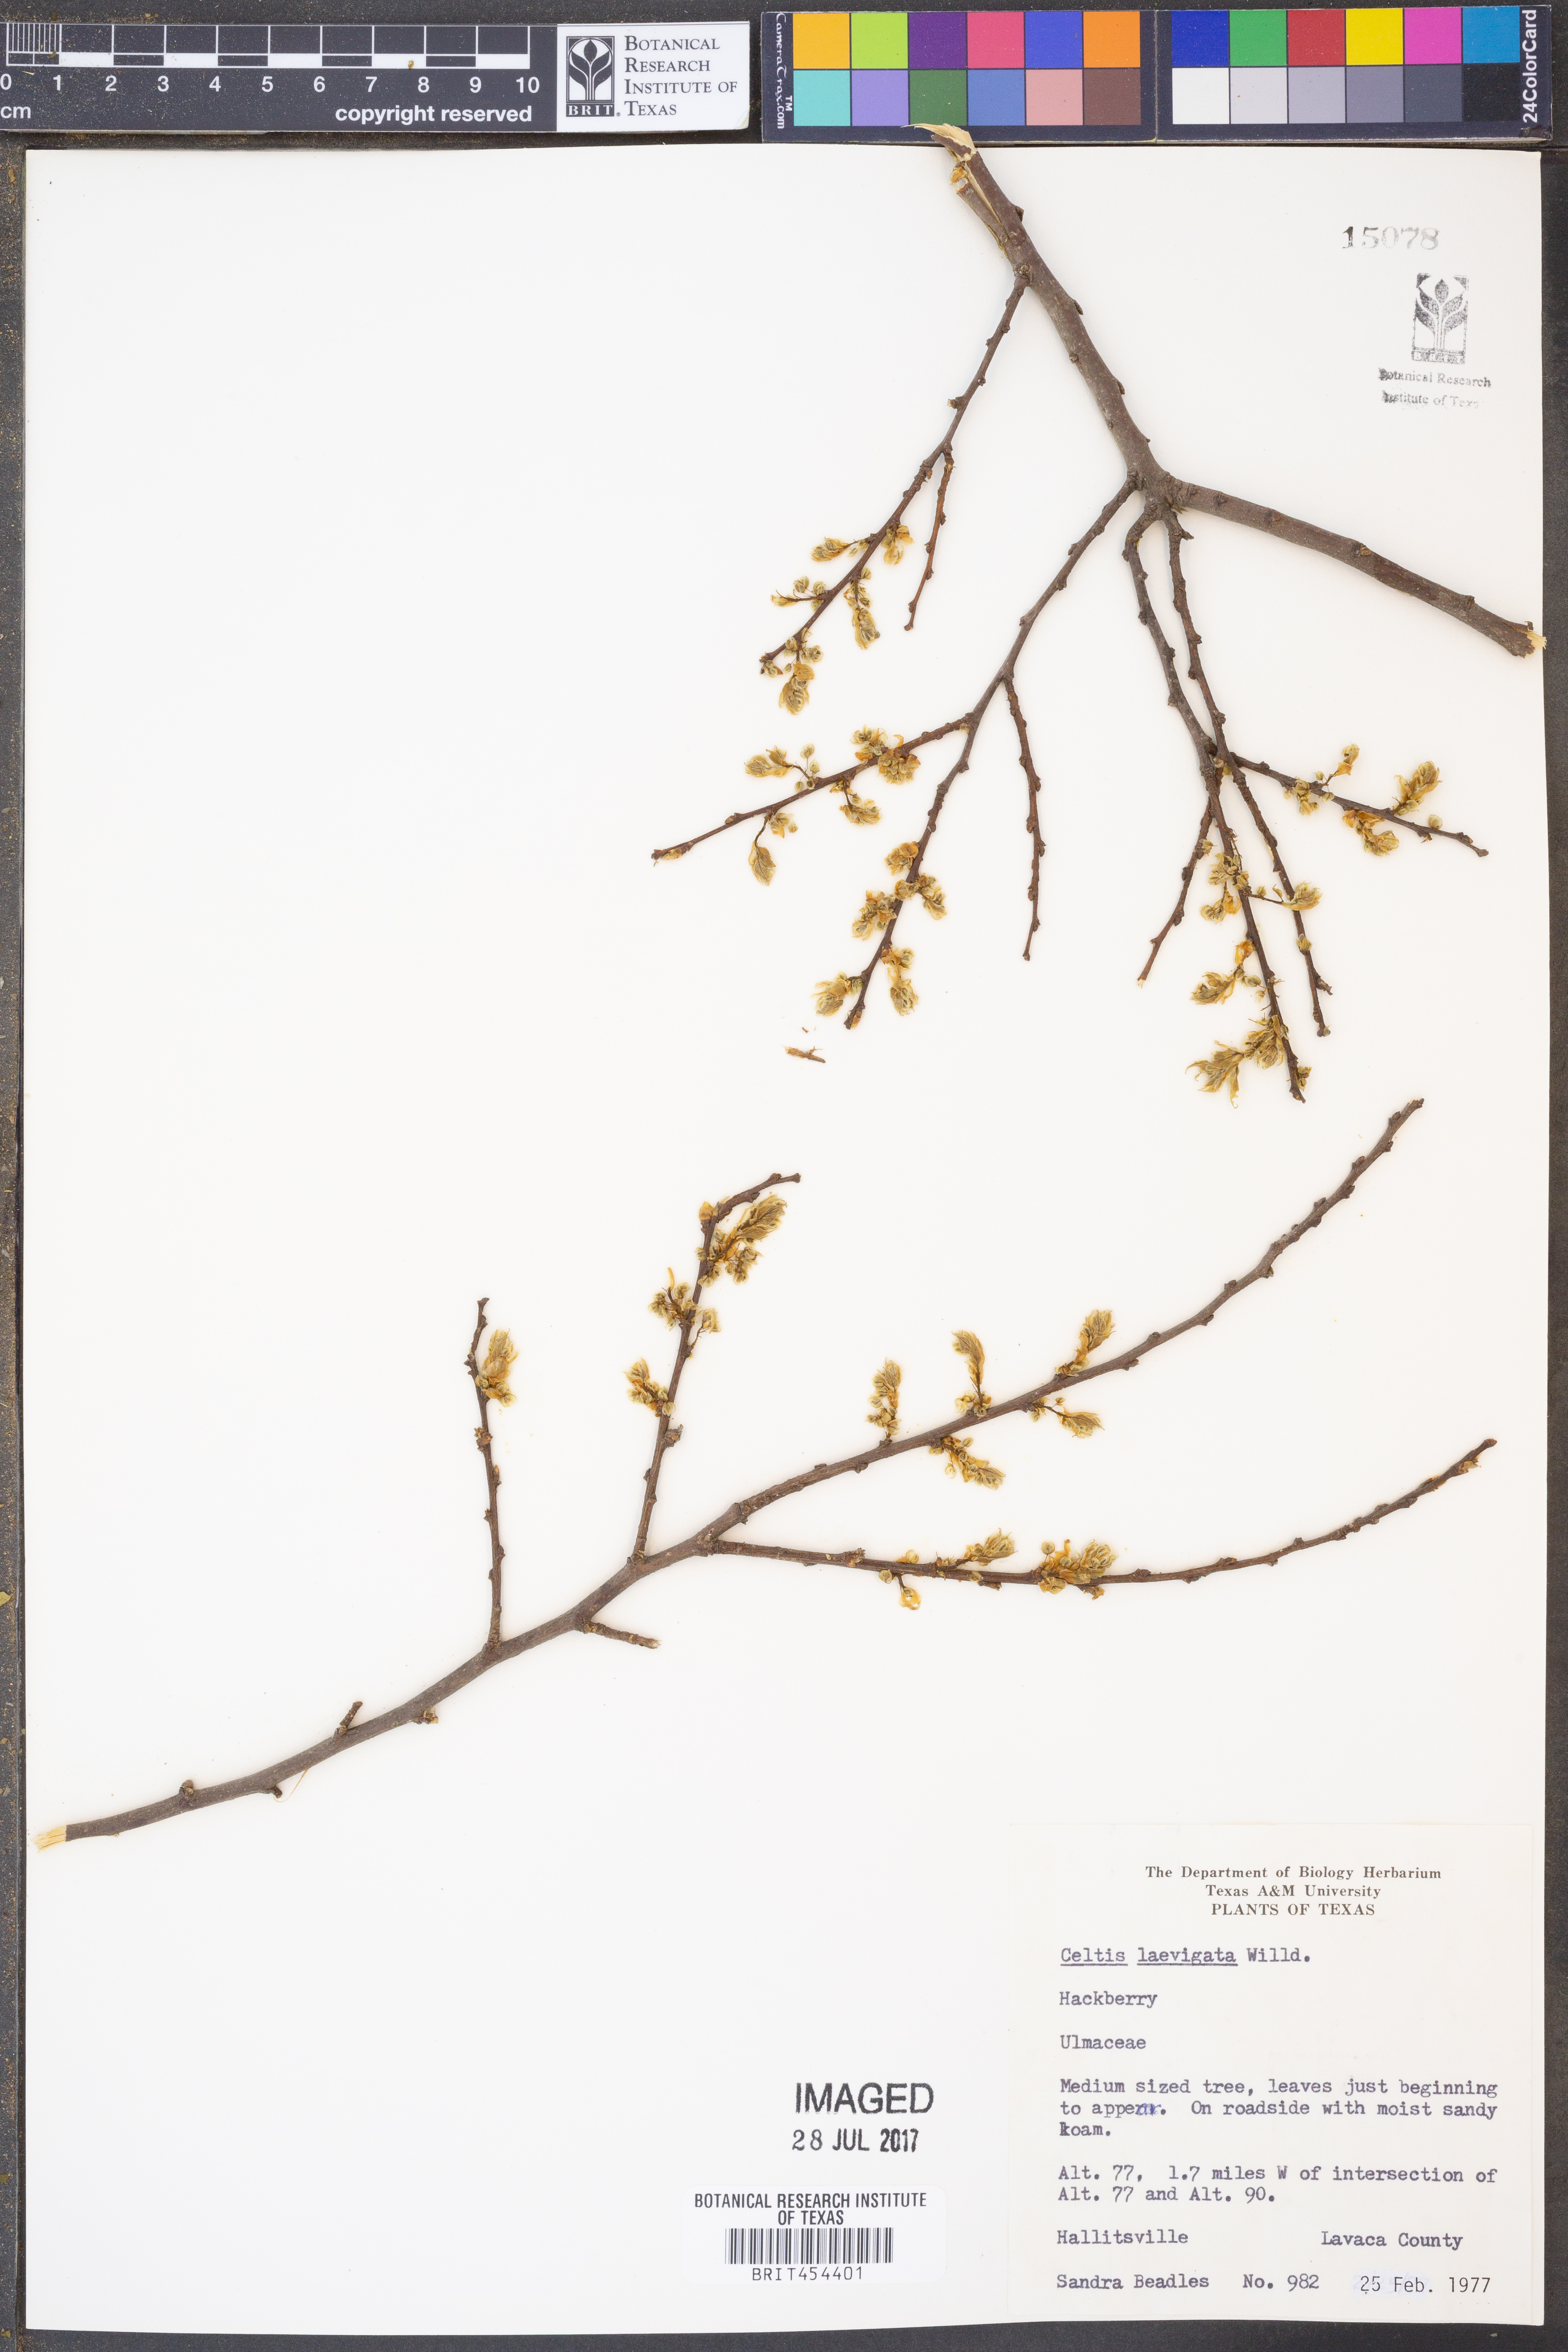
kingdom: Plantae
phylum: Tracheophyta
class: Magnoliopsida
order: Rosales
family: Cannabaceae
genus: Celtis
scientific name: Celtis laevigata
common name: Sugarberry
